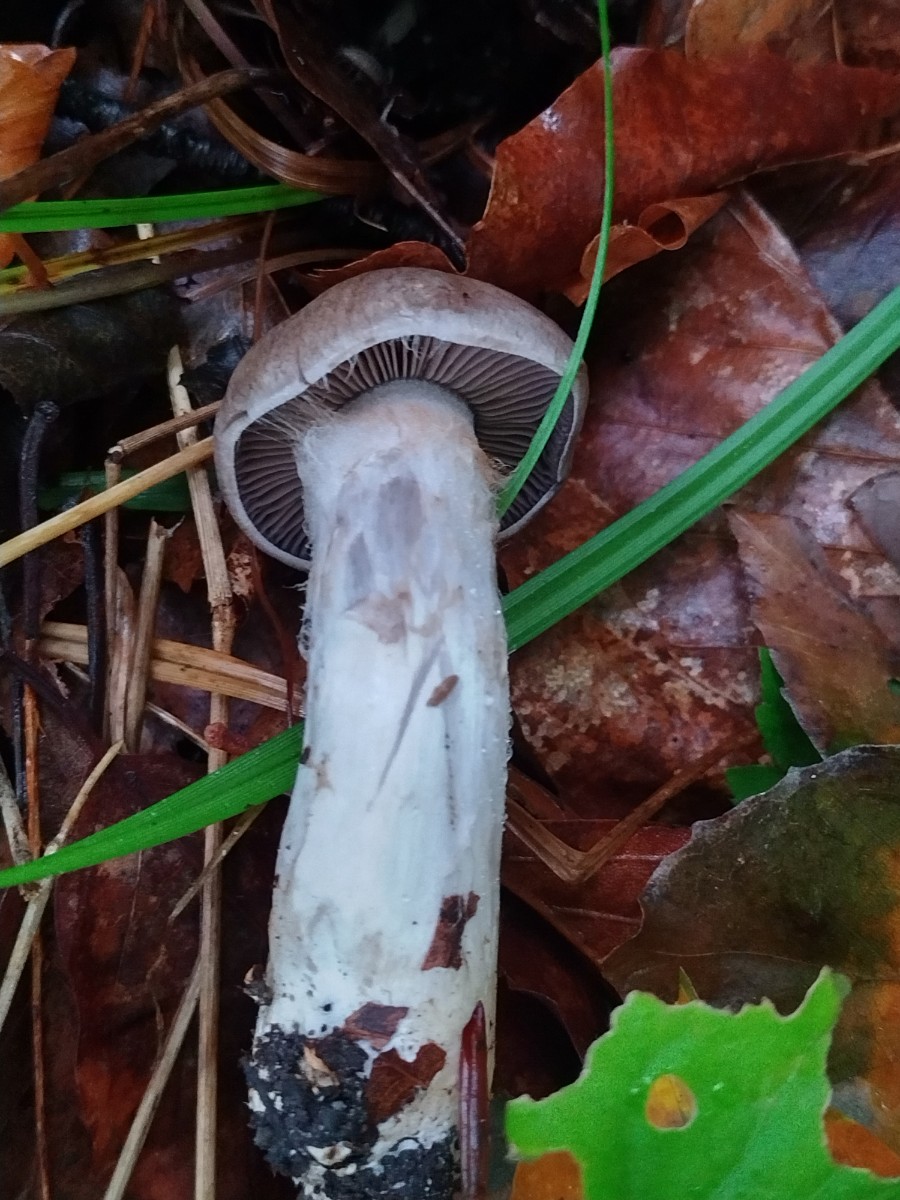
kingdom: Fungi
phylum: Basidiomycota
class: Agaricomycetes
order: Agaricales
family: Cortinariaceae
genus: Cortinarius
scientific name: Cortinarius
